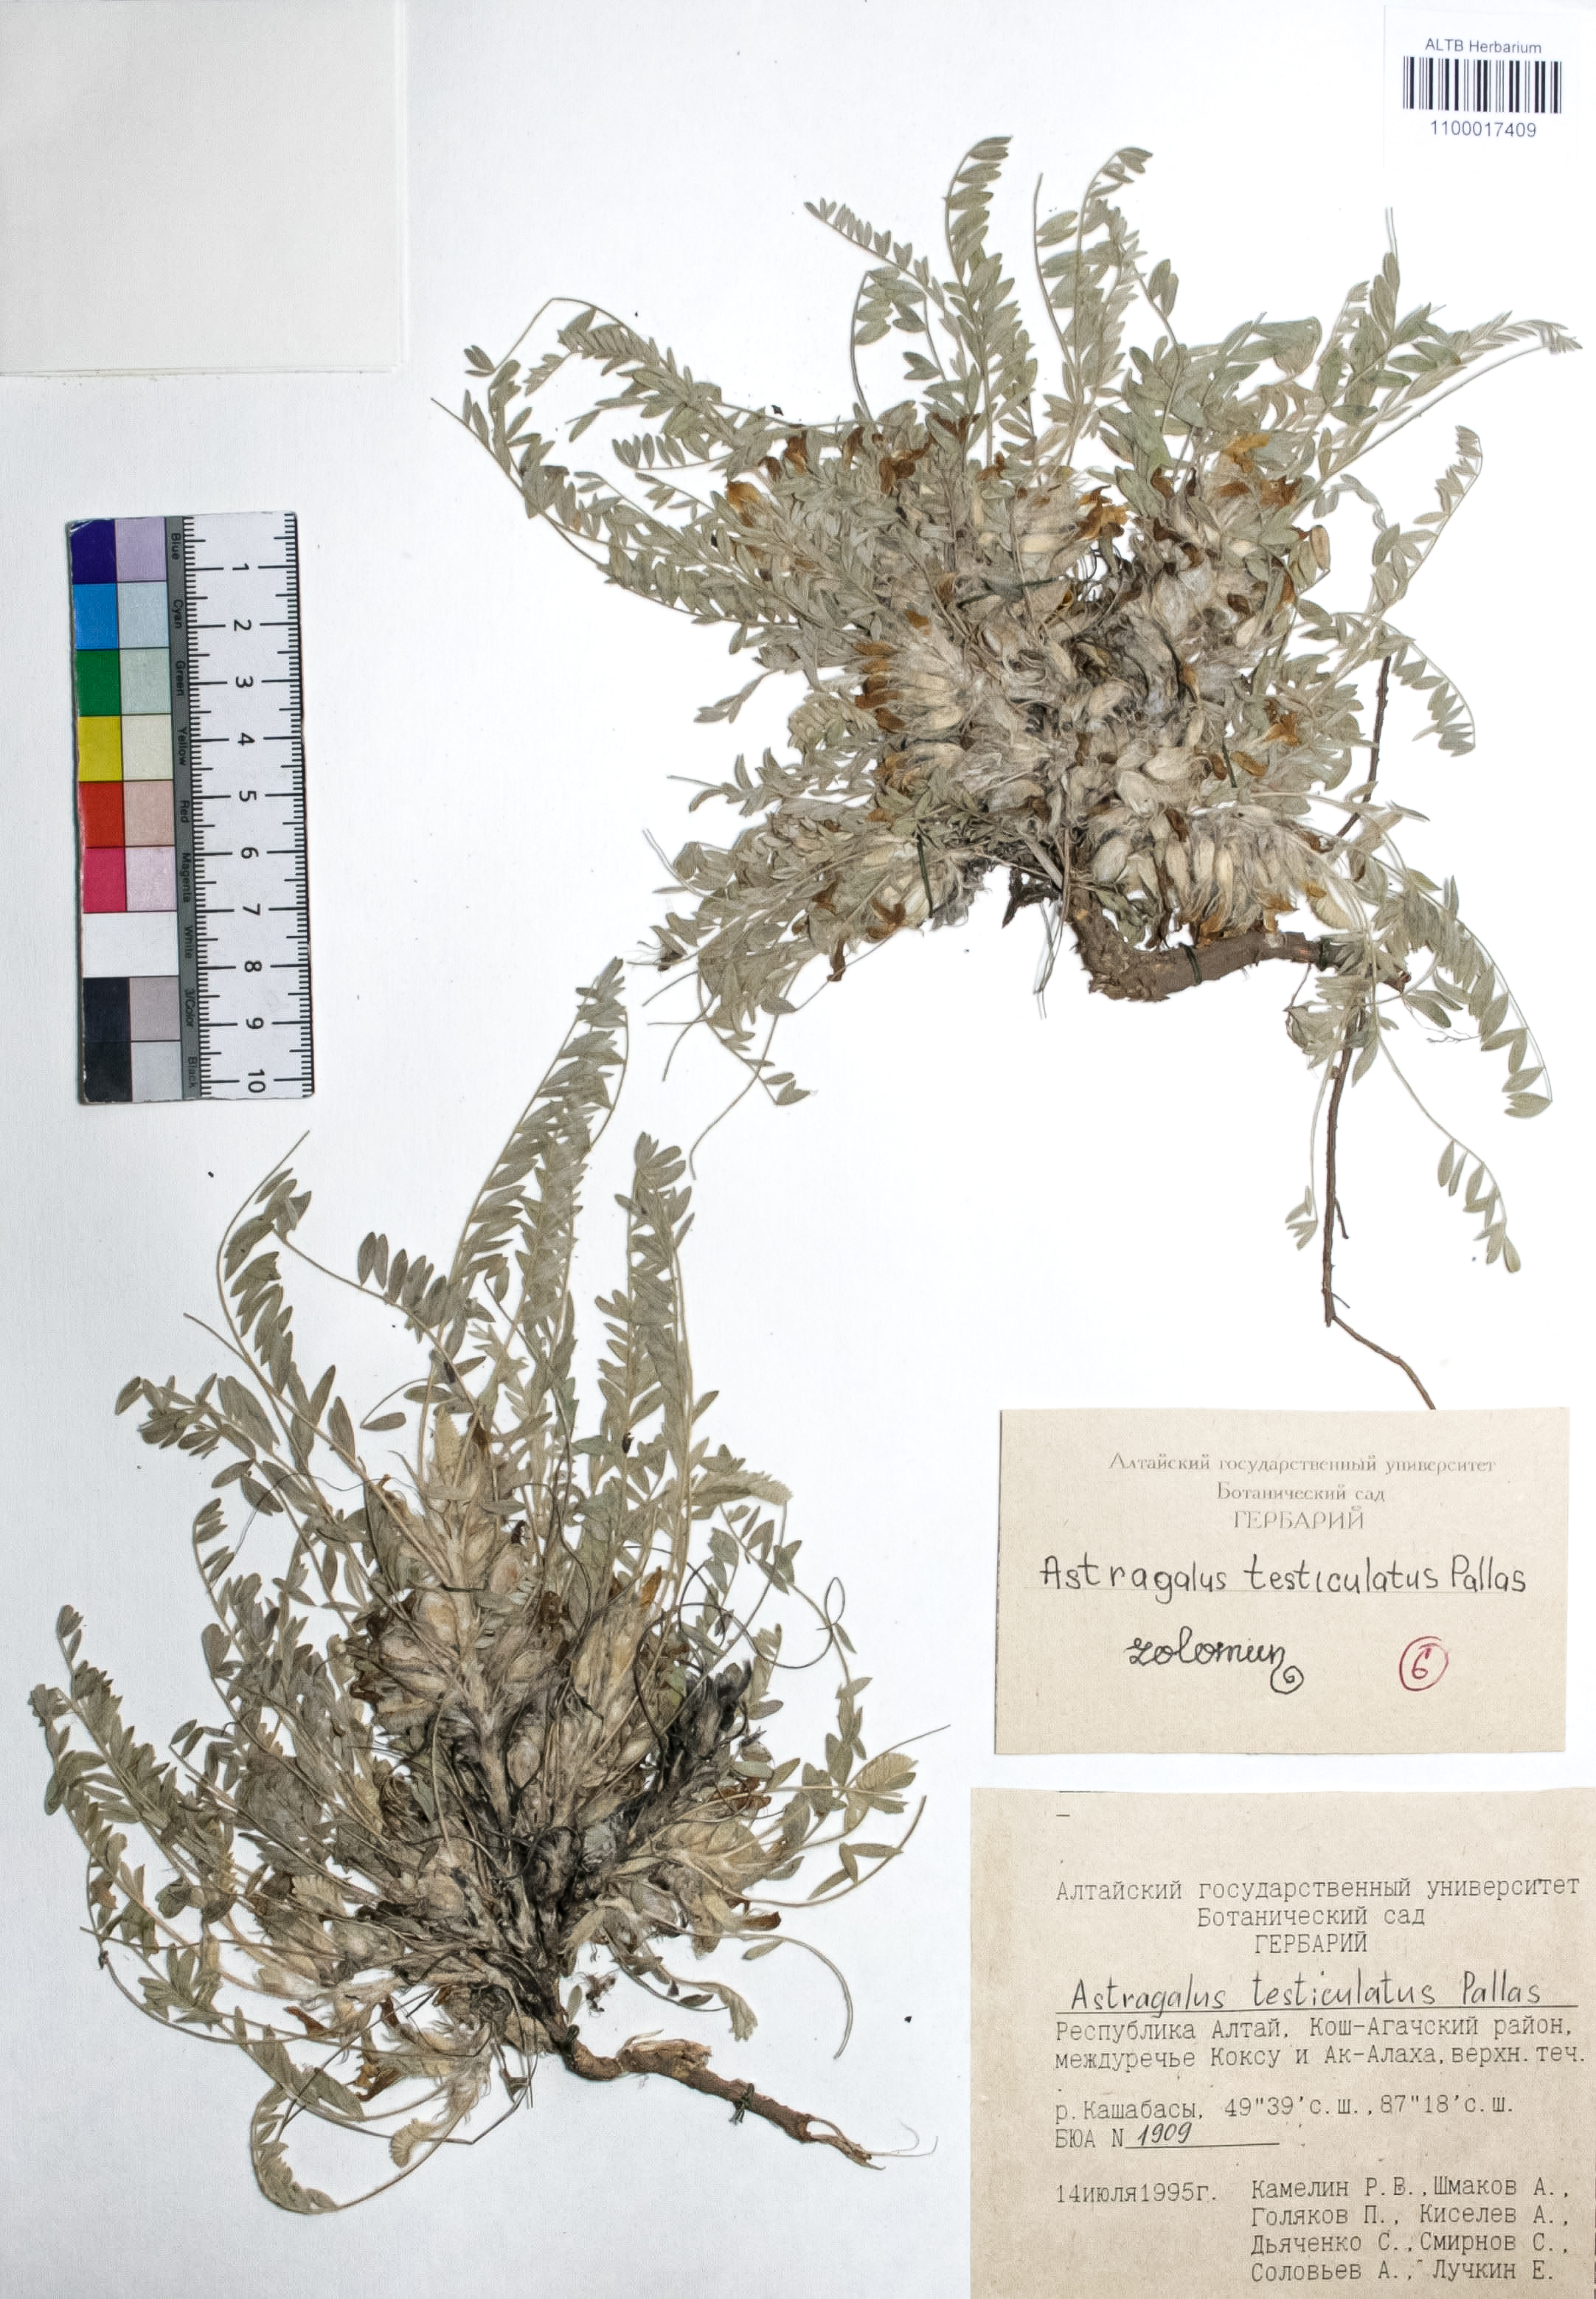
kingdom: Plantae
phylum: Tracheophyta
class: Magnoliopsida
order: Fabales
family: Fabaceae
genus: Astragalus
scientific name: Astragalus testiculatus
